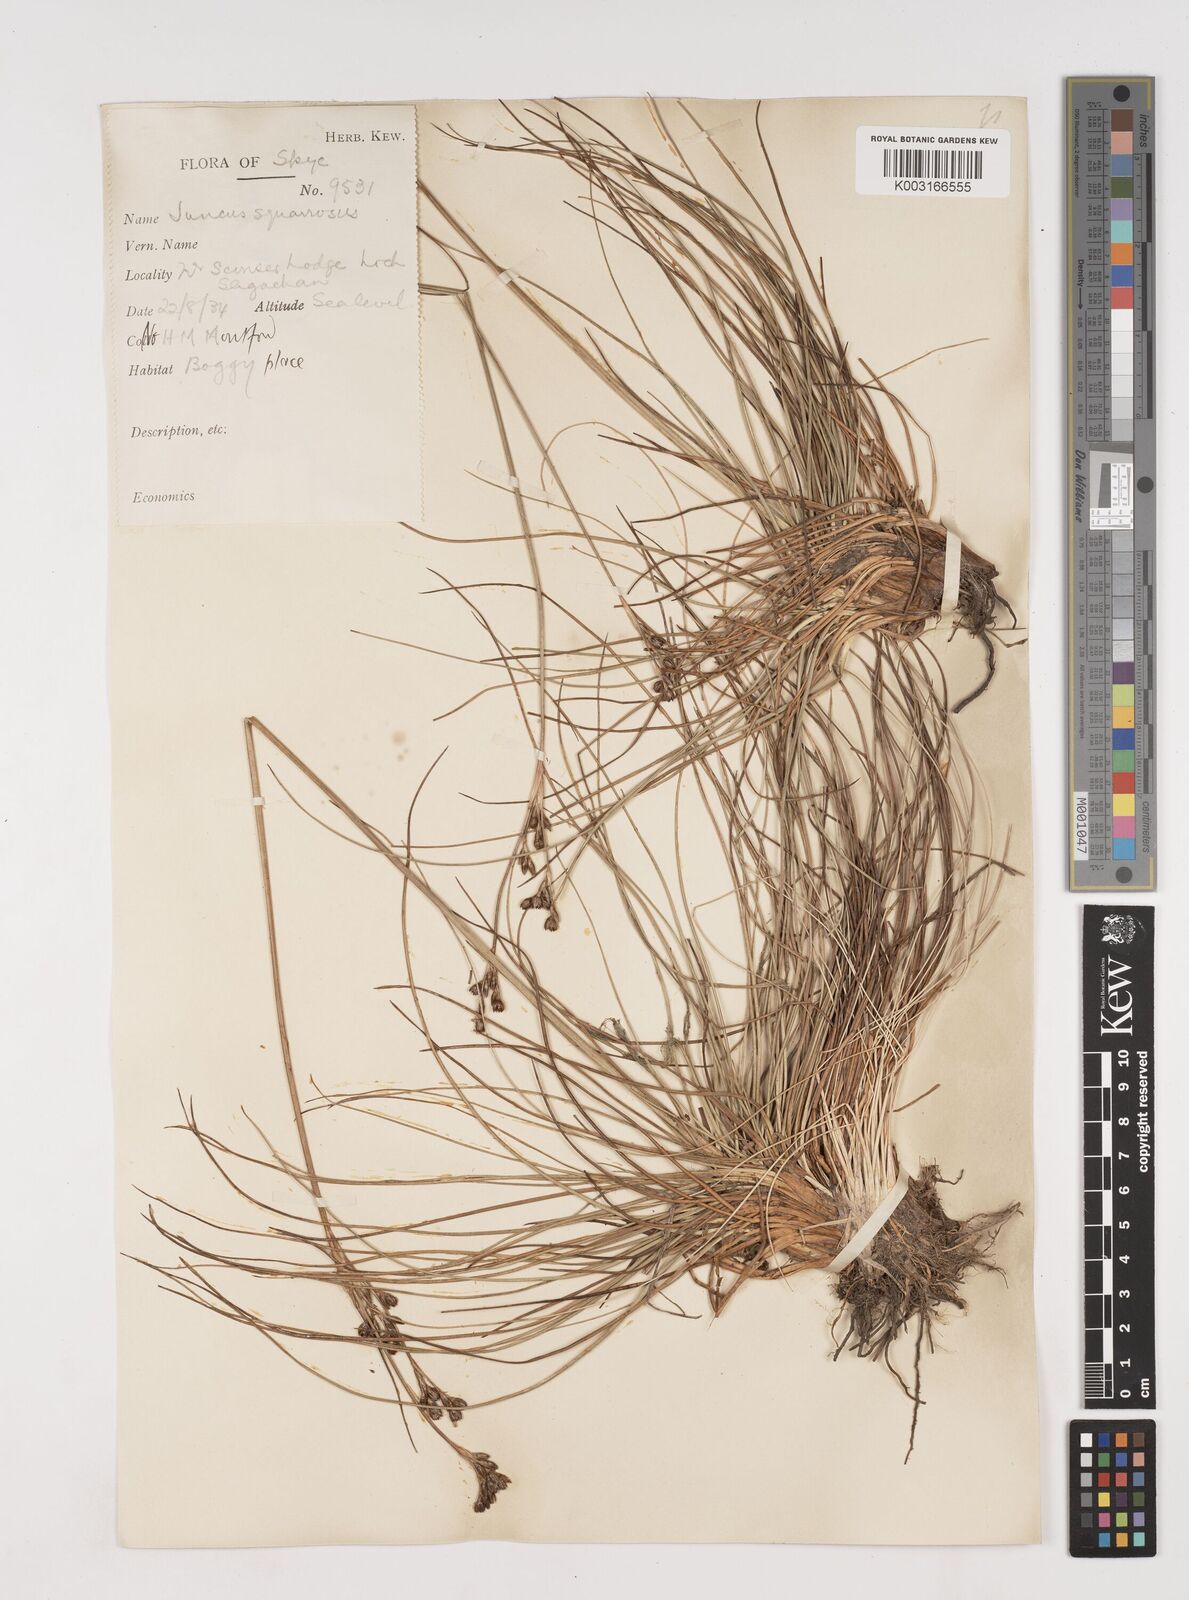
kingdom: Plantae
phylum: Tracheophyta
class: Liliopsida
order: Poales
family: Juncaceae
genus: Juncus
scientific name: Juncus squarrosus
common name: Heath rush
